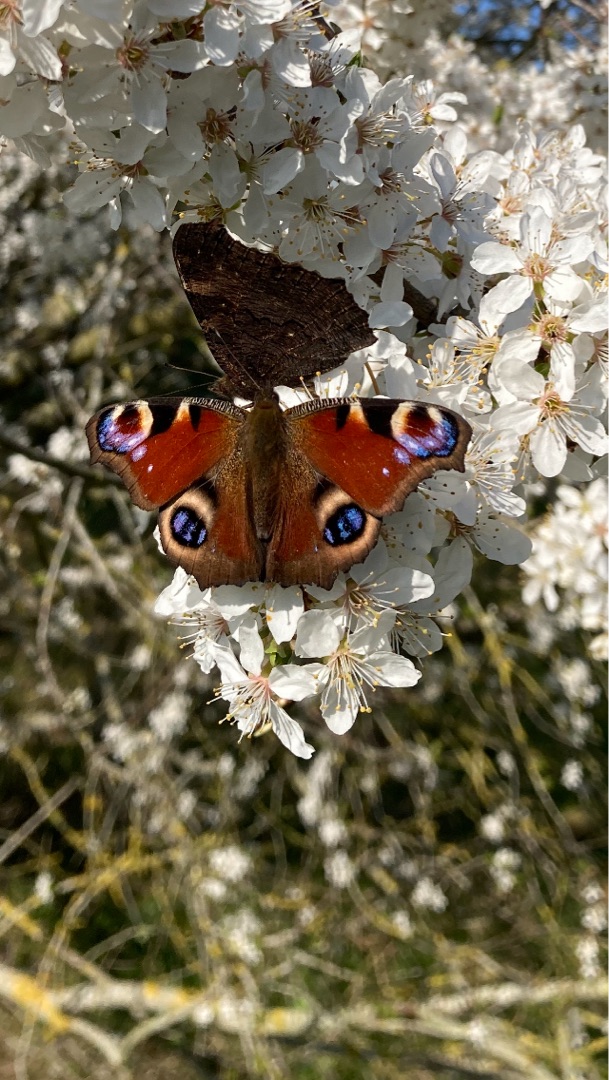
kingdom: Animalia
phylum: Arthropoda
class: Insecta
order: Lepidoptera
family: Nymphalidae
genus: Aglais
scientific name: Aglais io
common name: Dagpåfugleøje
